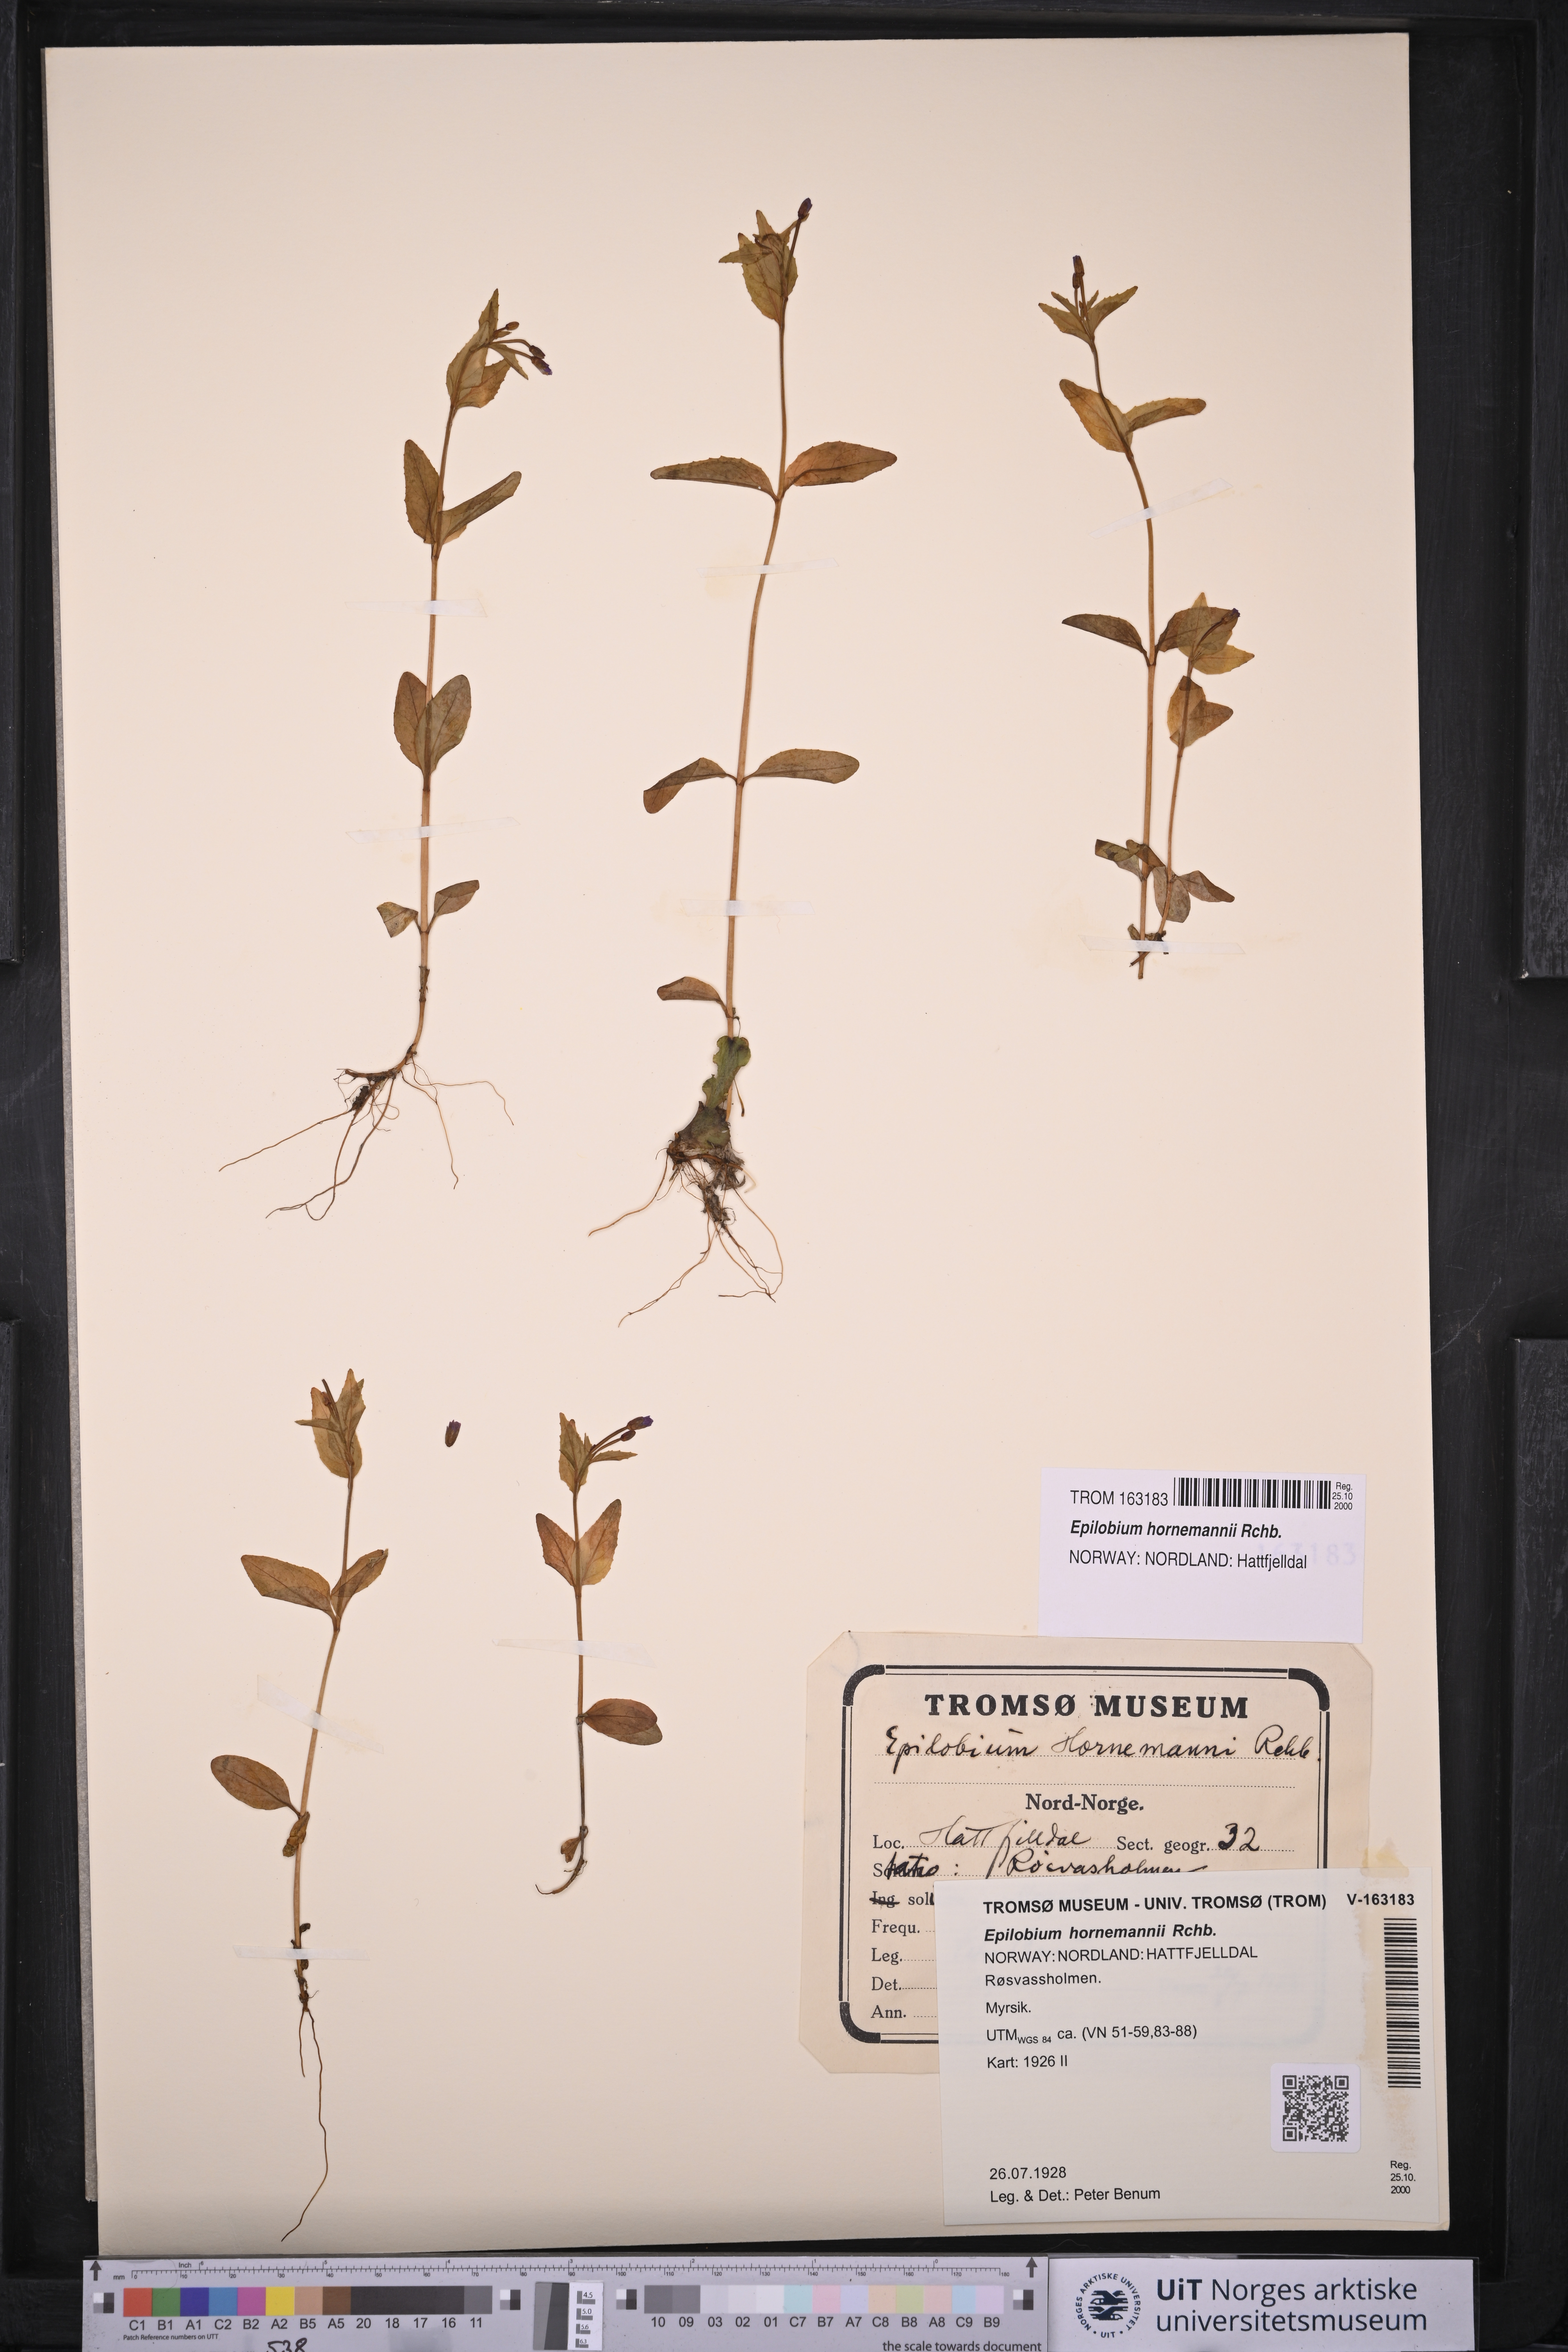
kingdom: Plantae
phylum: Tracheophyta
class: Magnoliopsida
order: Myrtales
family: Onagraceae
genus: Epilobium
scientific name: Epilobium hornemannii
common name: Hornemann's willowherb
